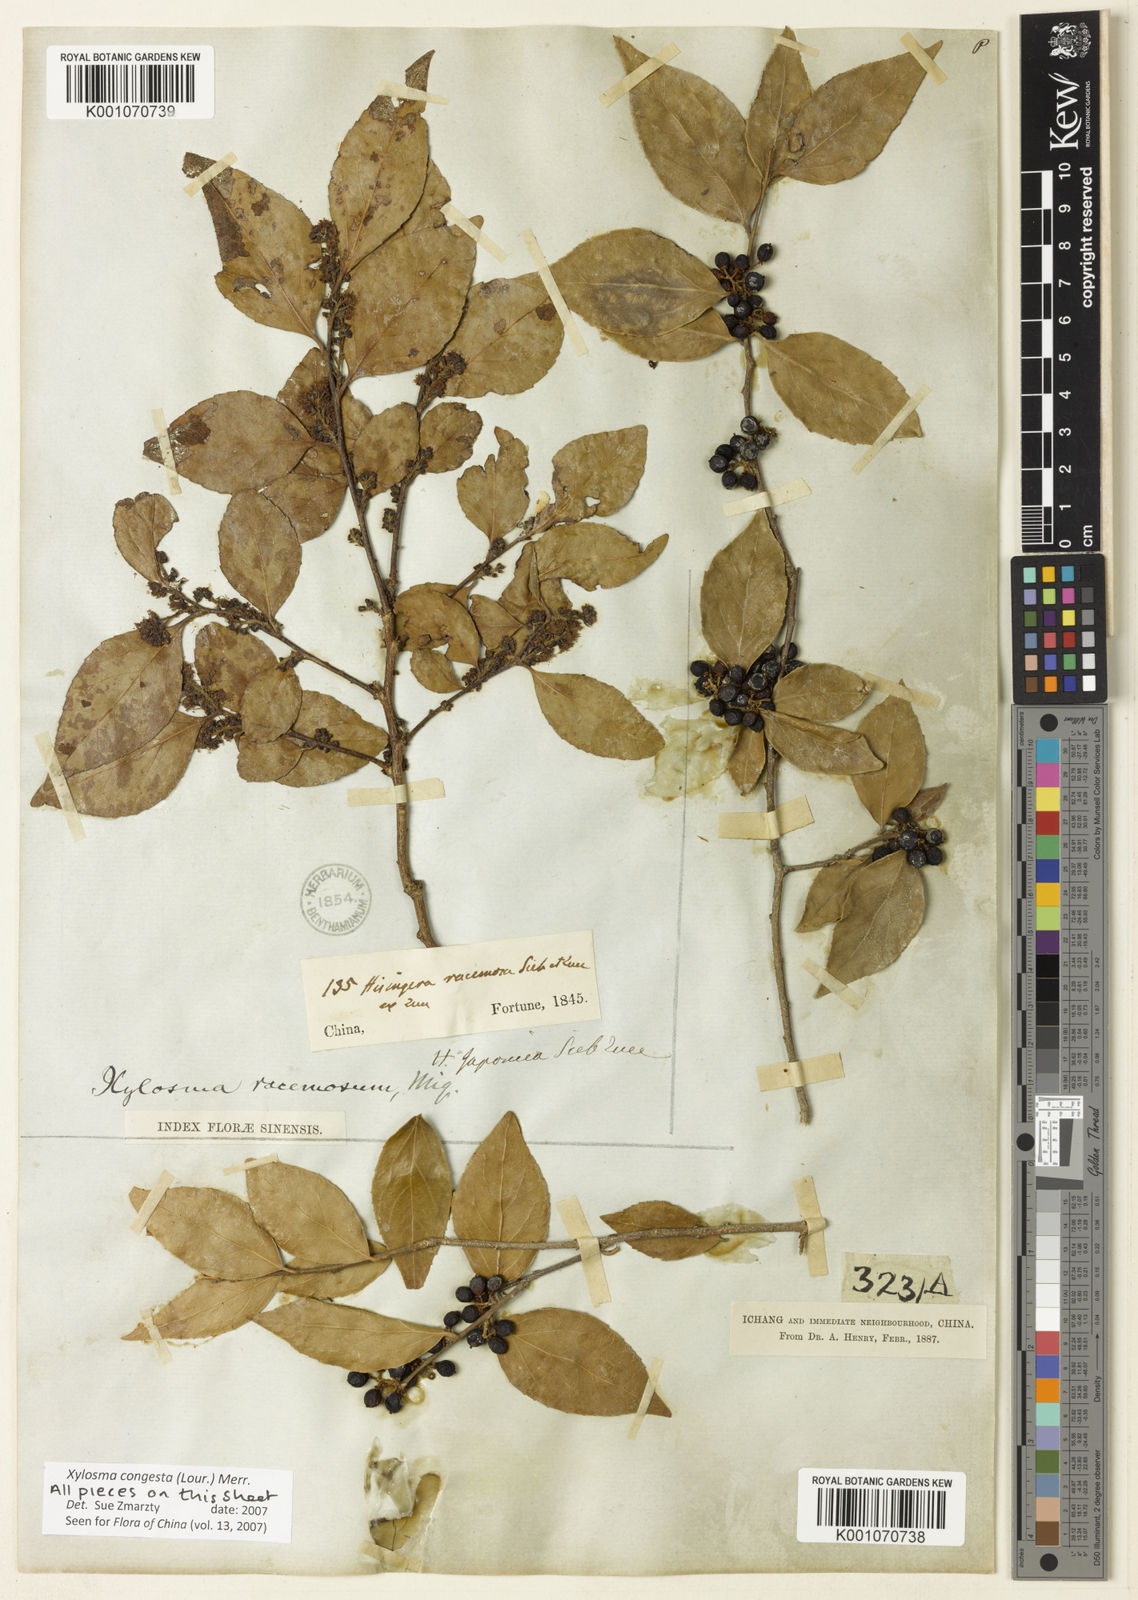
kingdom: Plantae
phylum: Tracheophyta
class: Magnoliopsida
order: Malpighiales
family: Salicaceae
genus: Xylosma
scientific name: Xylosma racemosum
